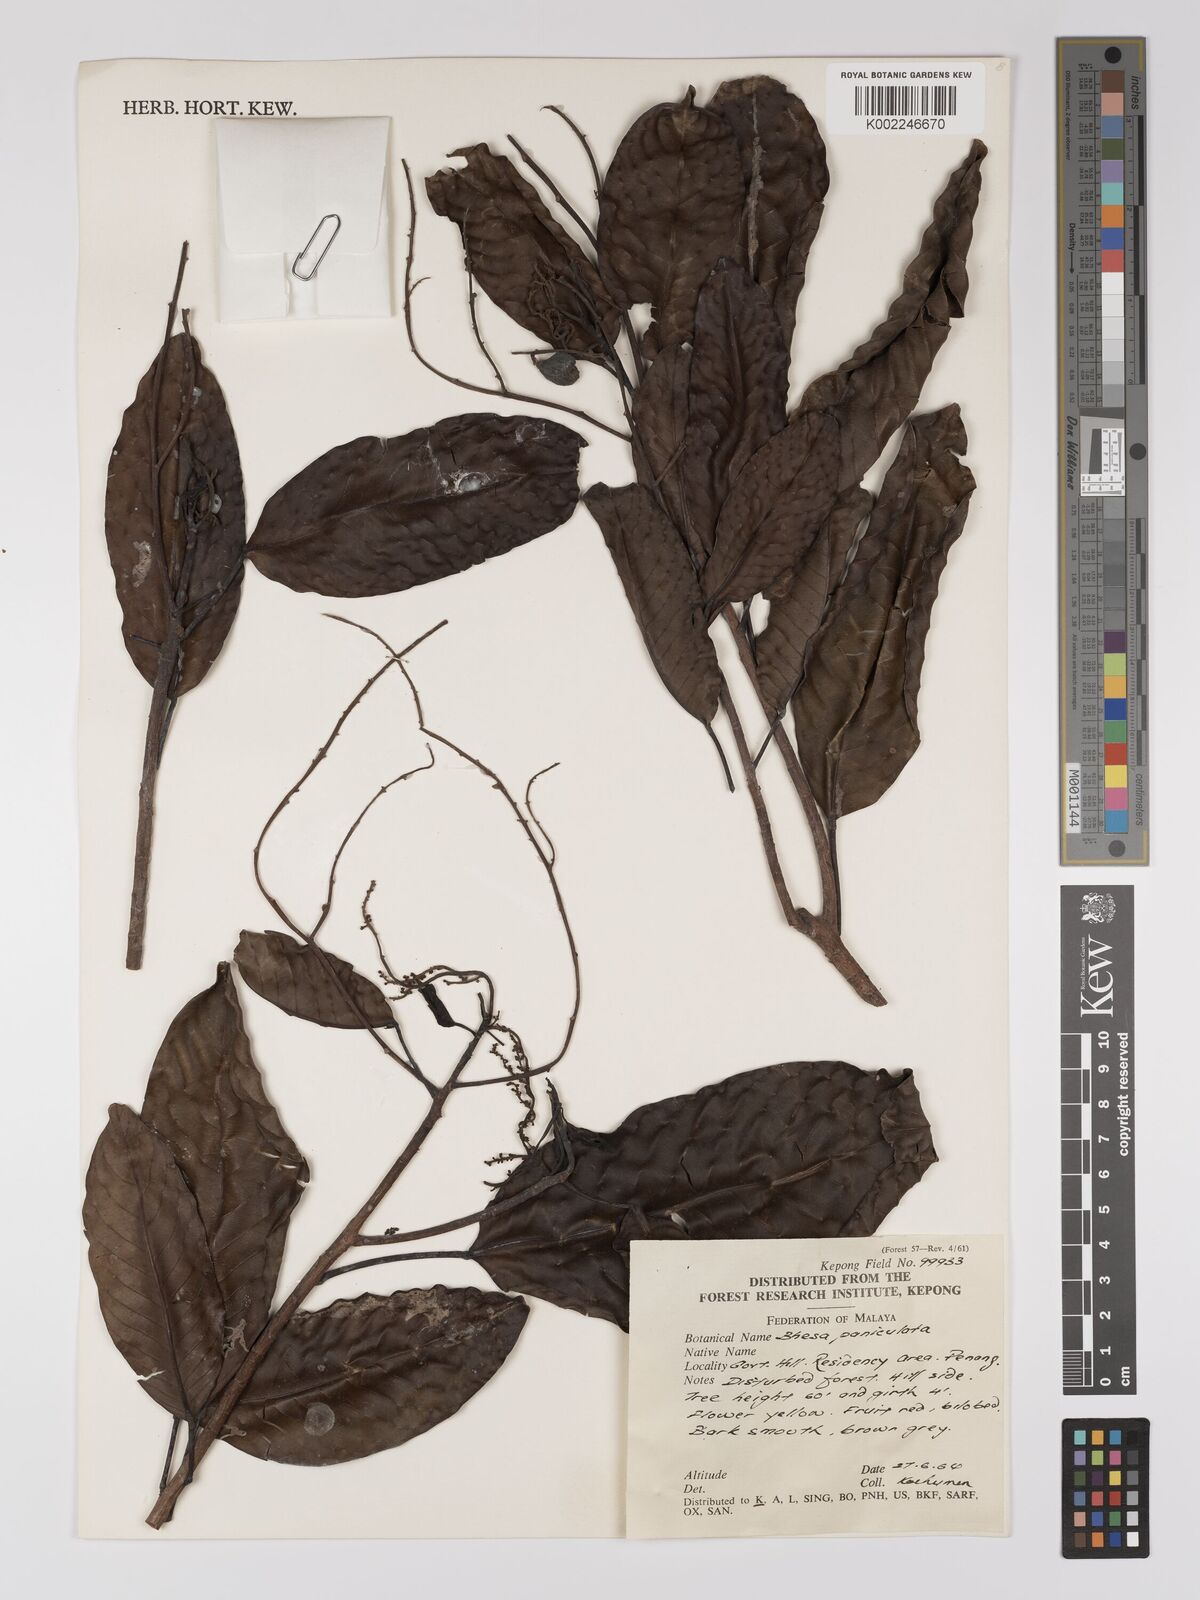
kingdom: Plantae
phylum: Tracheophyta
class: Magnoliopsida
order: Malpighiales
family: Centroplacaceae
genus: Bhesa
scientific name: Bhesa paniculata
